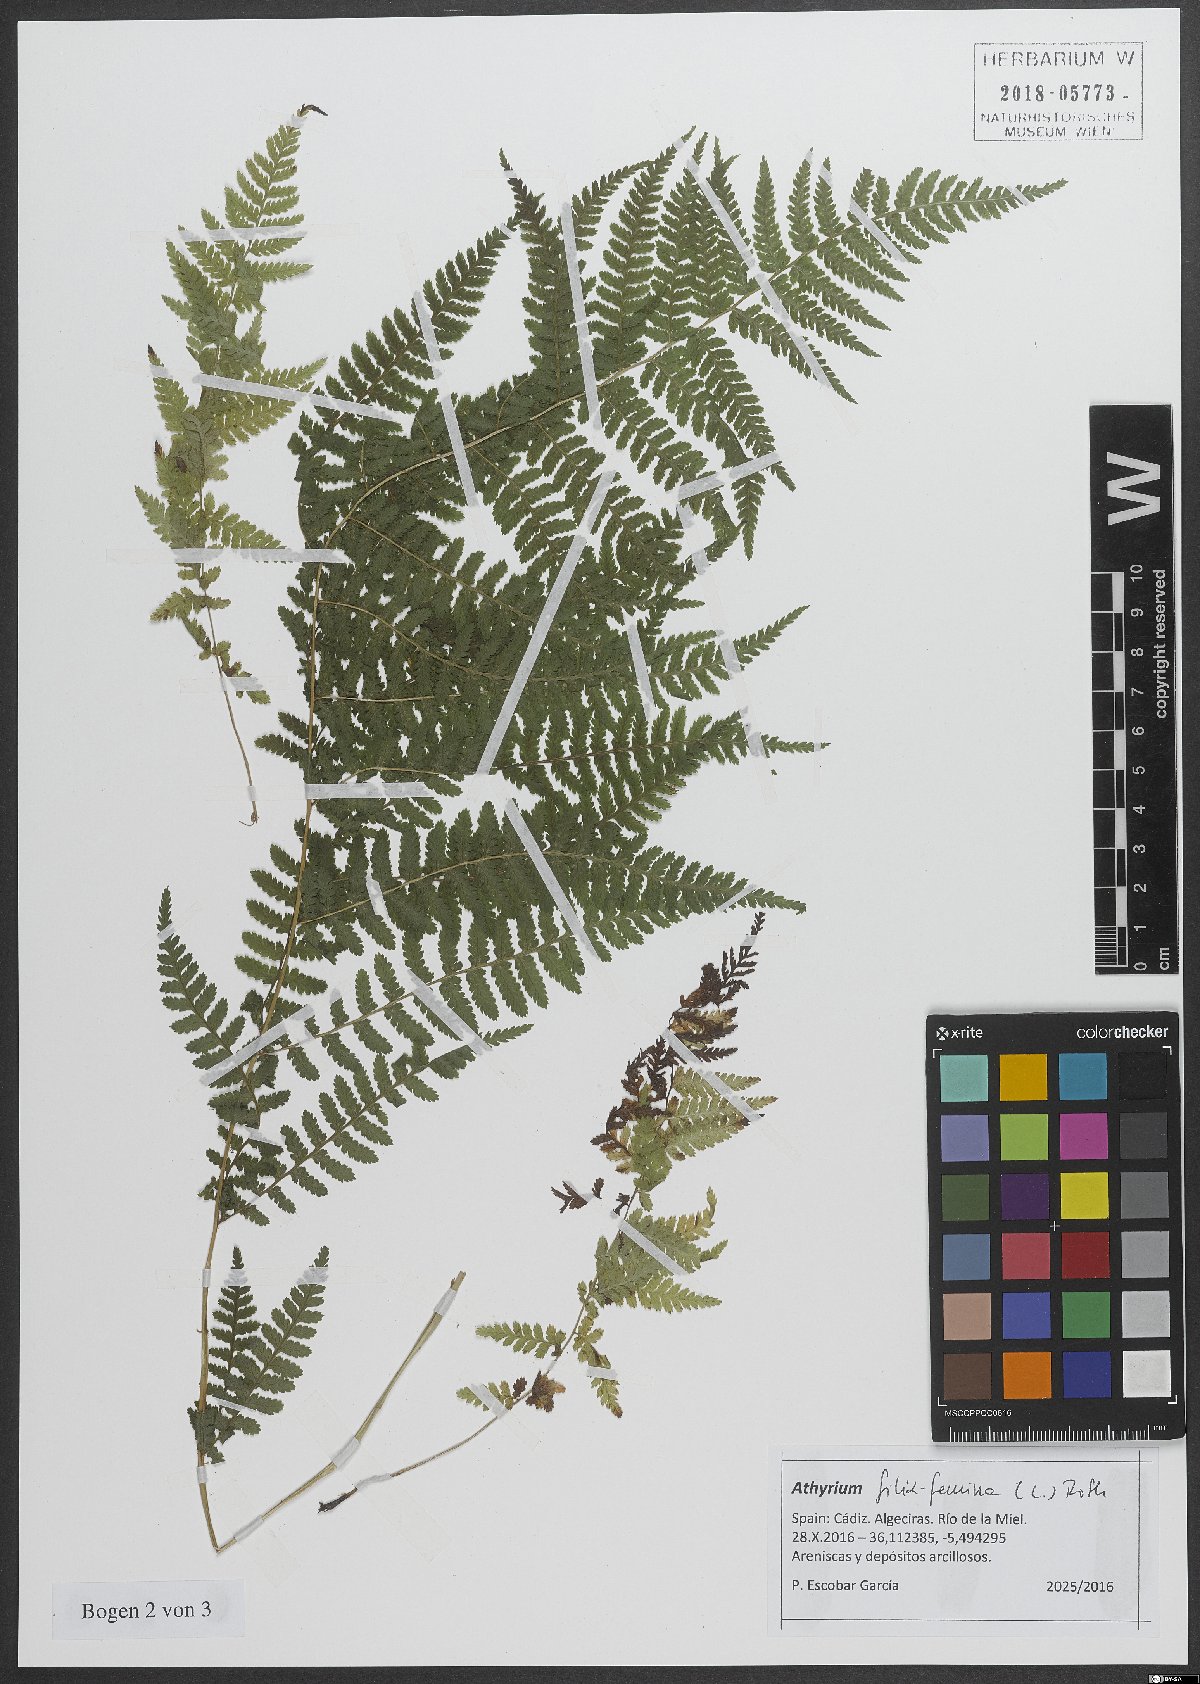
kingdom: Plantae
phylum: Tracheophyta
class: Polypodiopsida
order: Polypodiales
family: Athyriaceae
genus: Athyrium
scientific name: Athyrium filix-femina
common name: Lady fern
